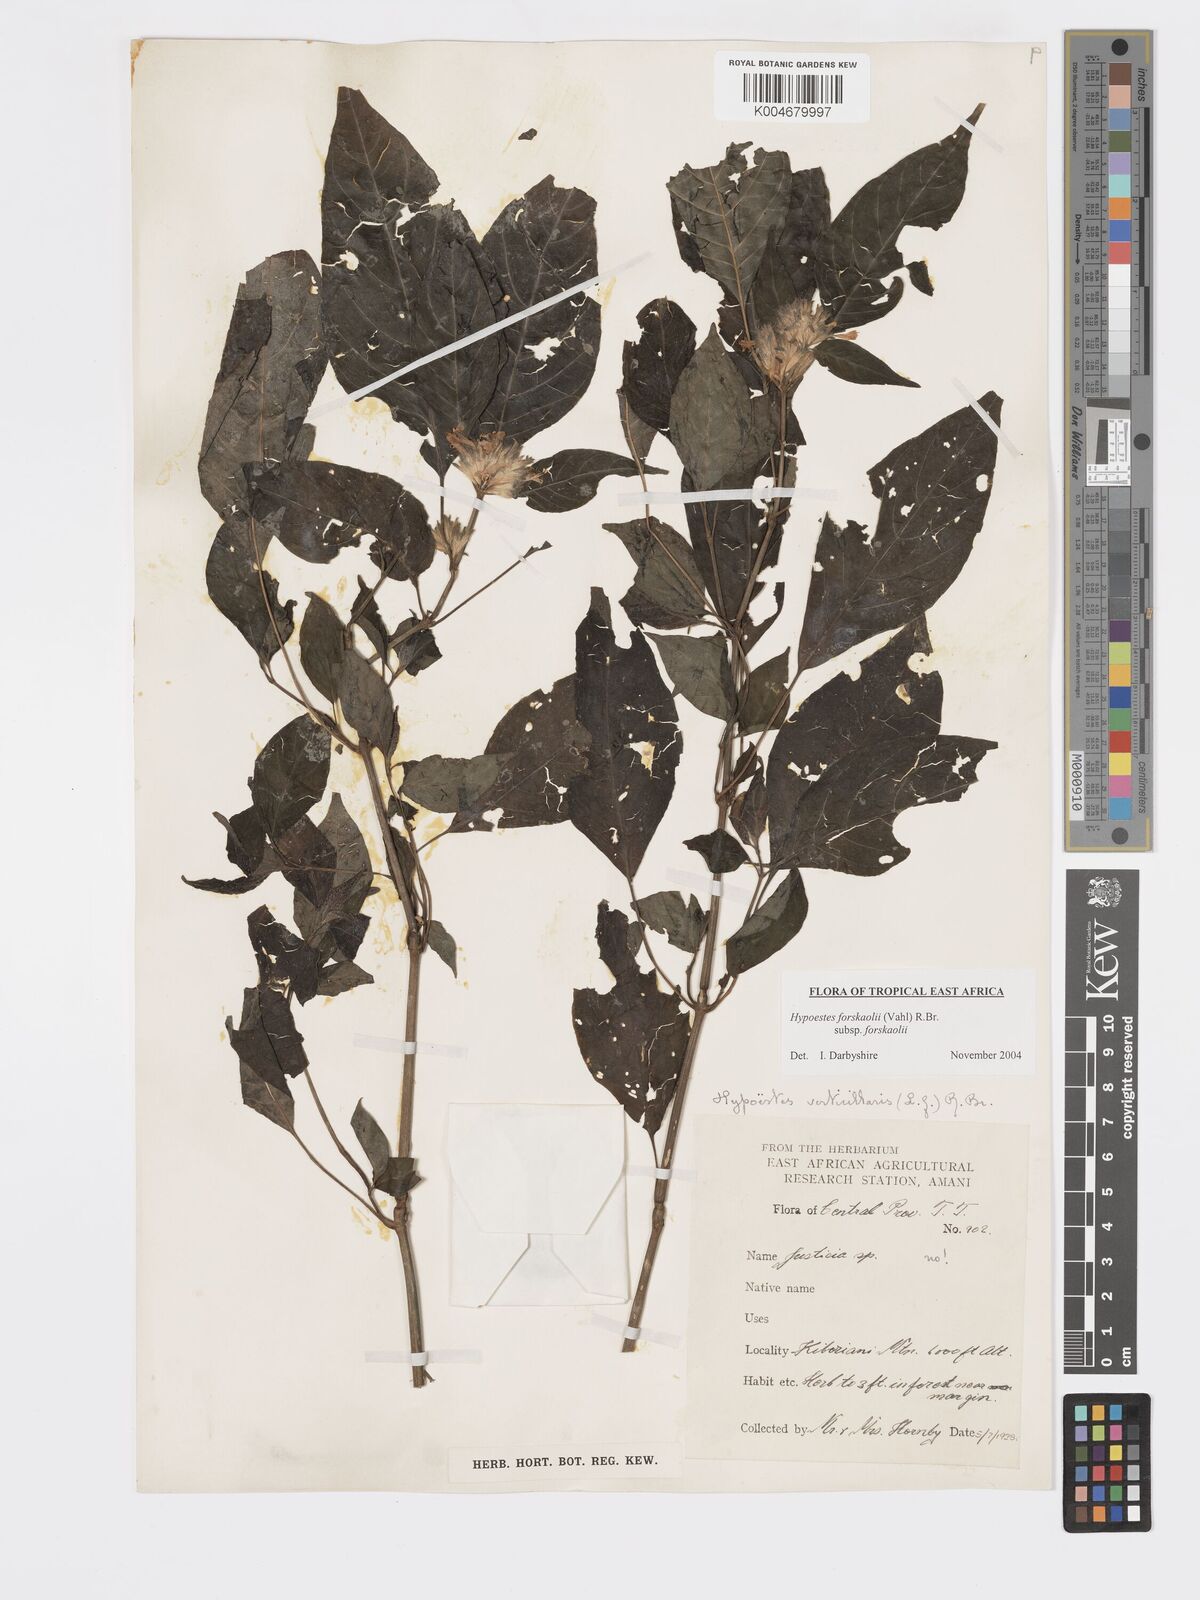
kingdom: Plantae
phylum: Tracheophyta
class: Magnoliopsida
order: Lamiales
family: Acanthaceae
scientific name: Acanthaceae
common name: Acanthaceae
